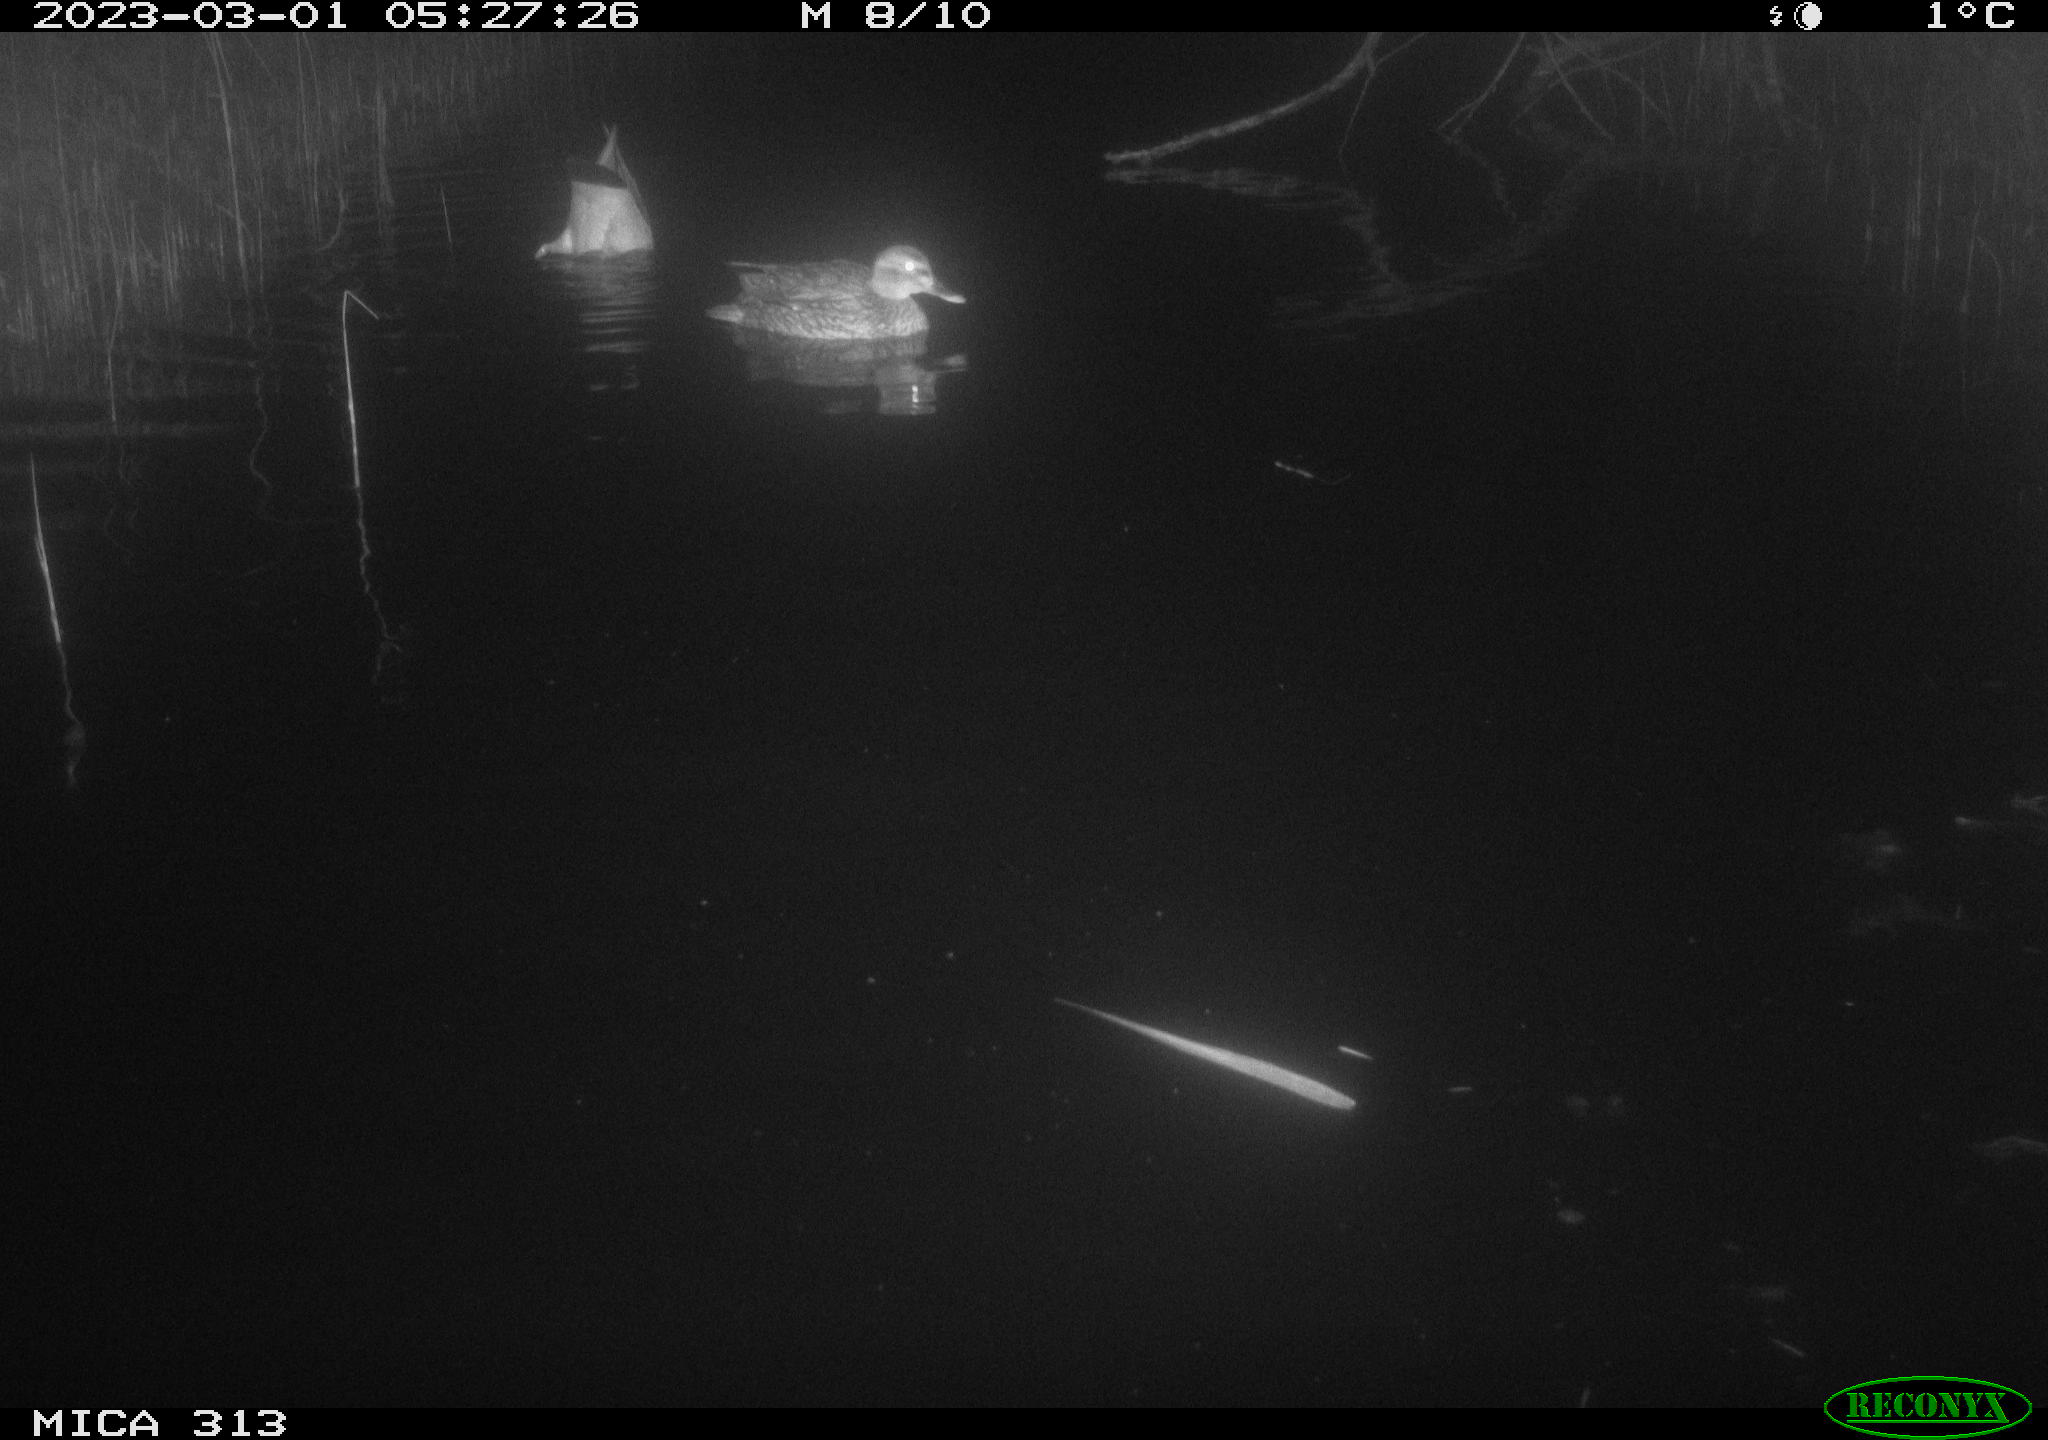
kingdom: Animalia
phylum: Chordata
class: Mammalia
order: Rodentia
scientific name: Rodentia
